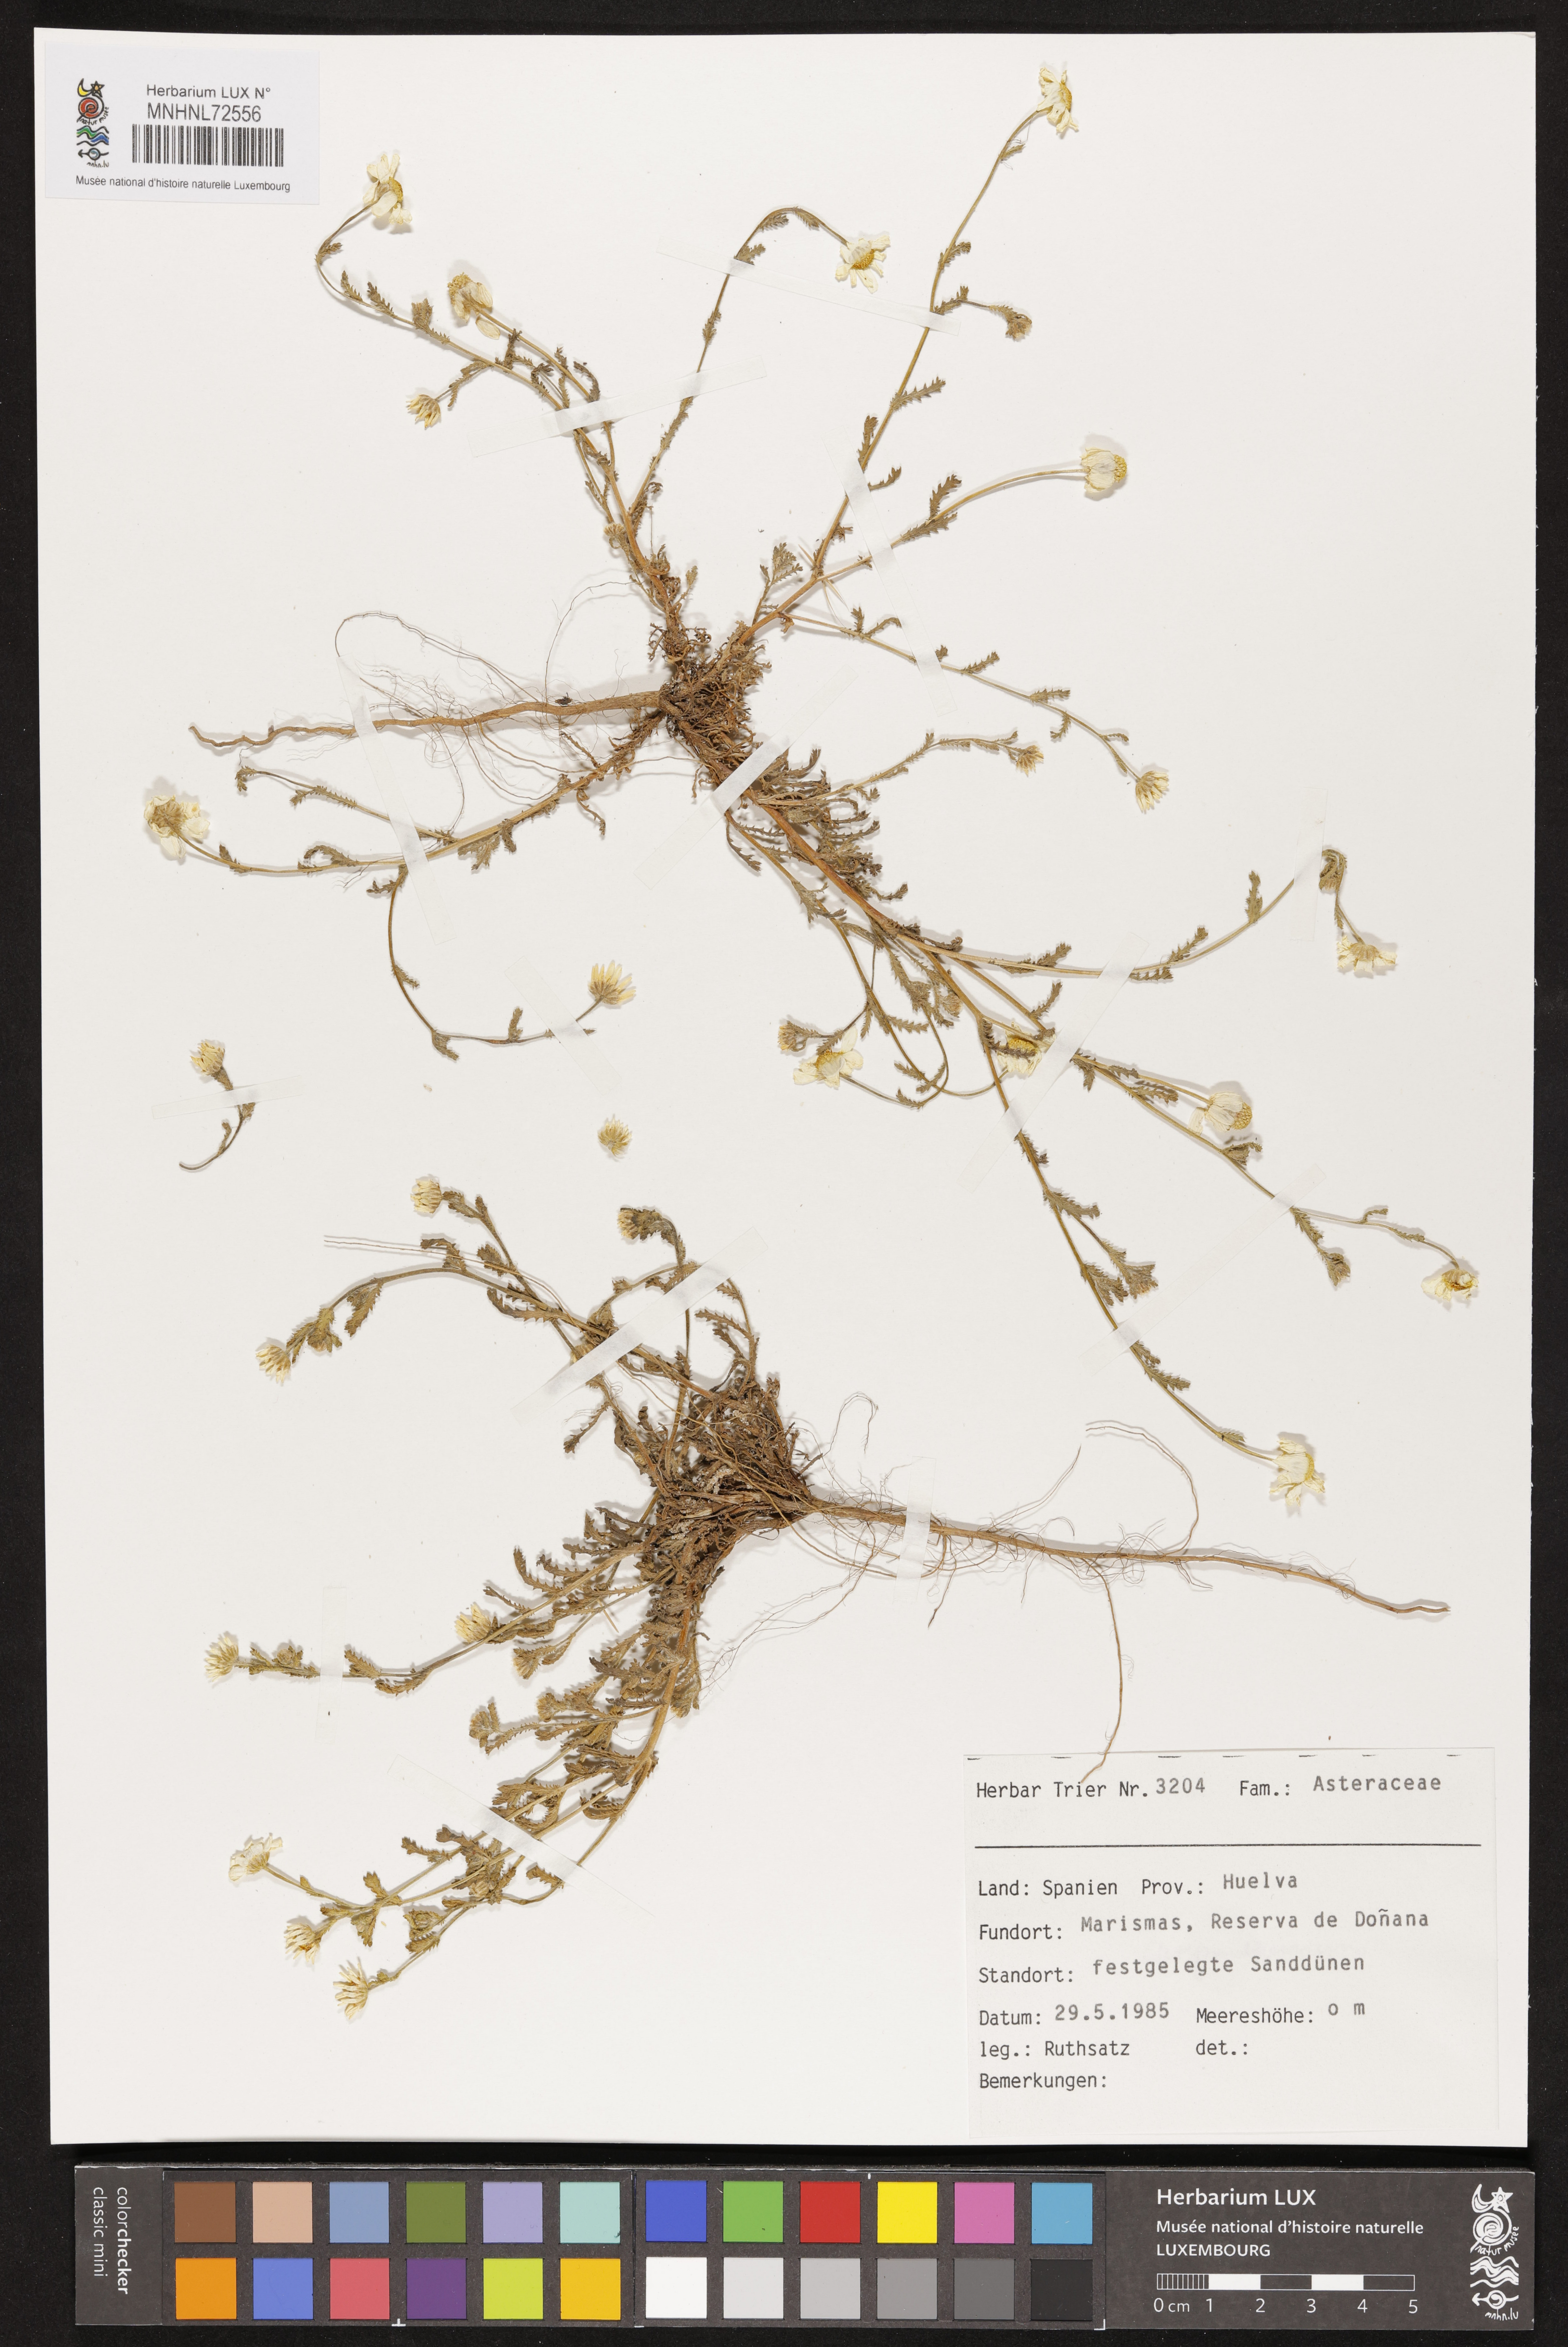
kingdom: Plantae
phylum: Tracheophyta
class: Magnoliopsida
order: Asterales
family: Asteraceae
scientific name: Asteraceae
